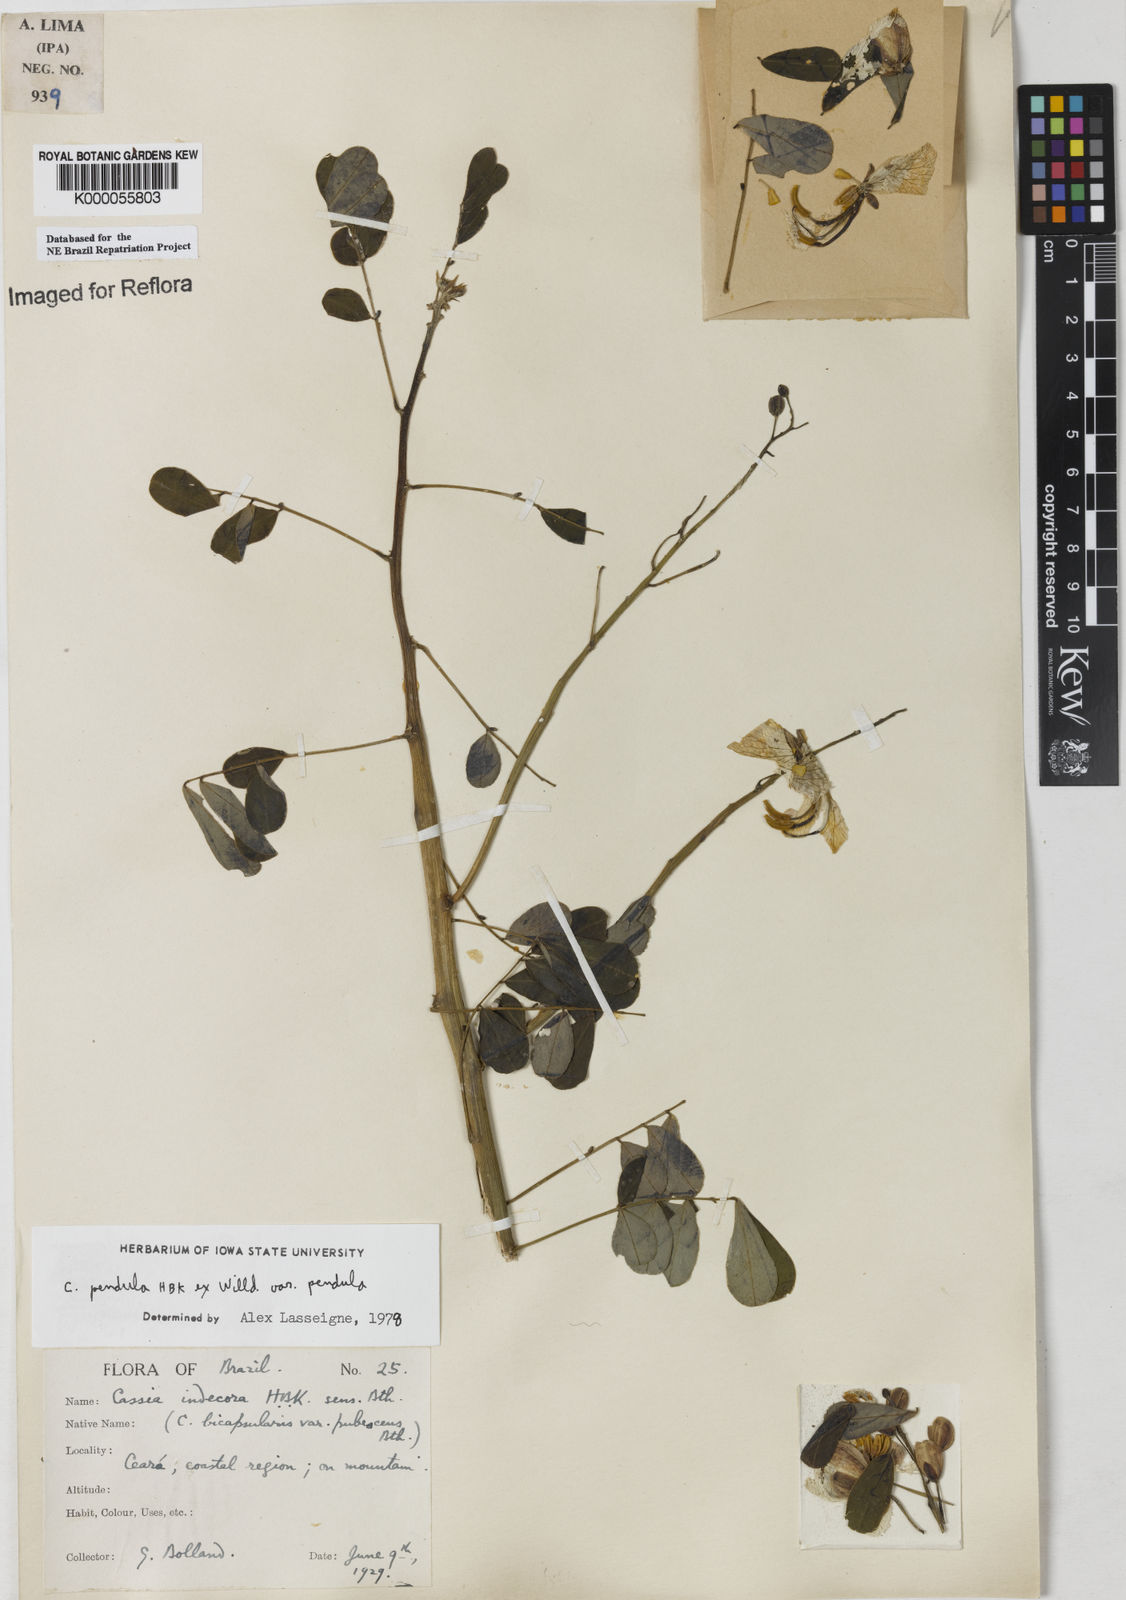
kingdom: Plantae
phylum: Tracheophyta
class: Magnoliopsida
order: Fabales
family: Fabaceae
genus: Senna
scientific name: Senna pendula
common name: Easter cassia
